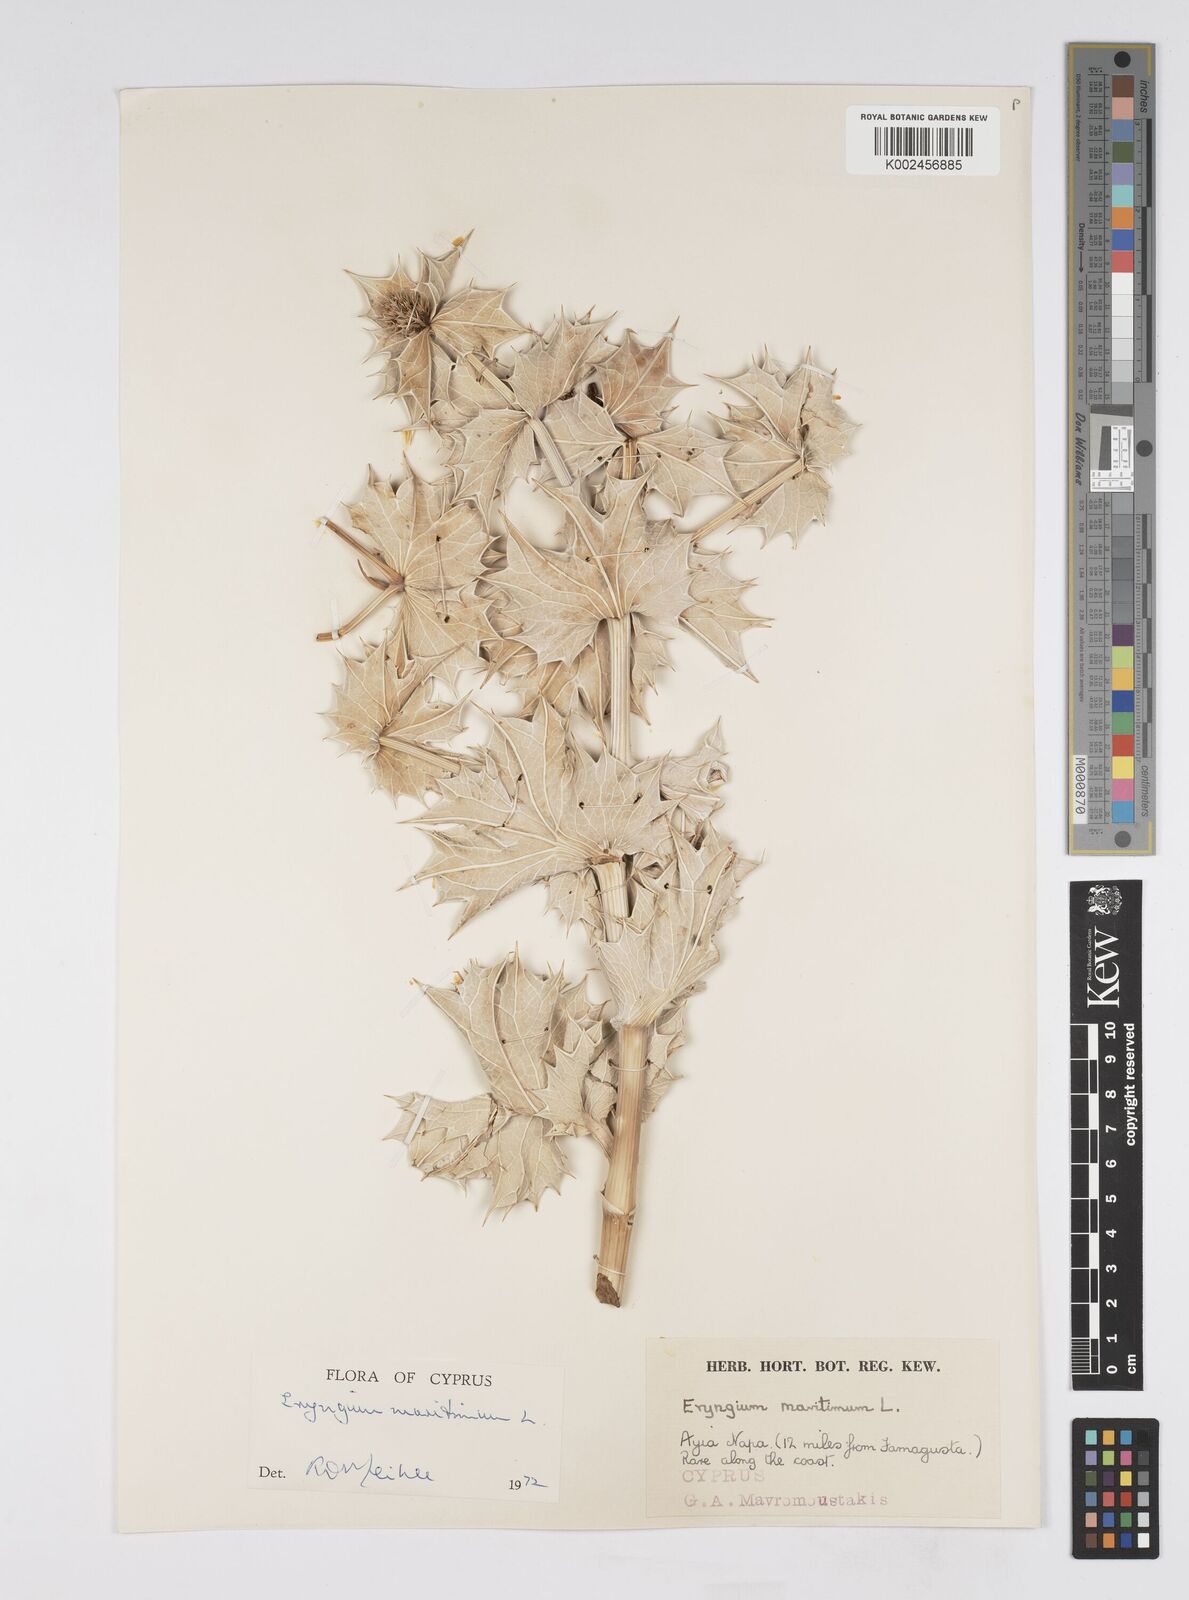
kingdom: Plantae
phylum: Tracheophyta
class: Magnoliopsida
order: Apiales
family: Apiaceae
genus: Eryngium
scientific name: Eryngium maritimum
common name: Sea-holly
